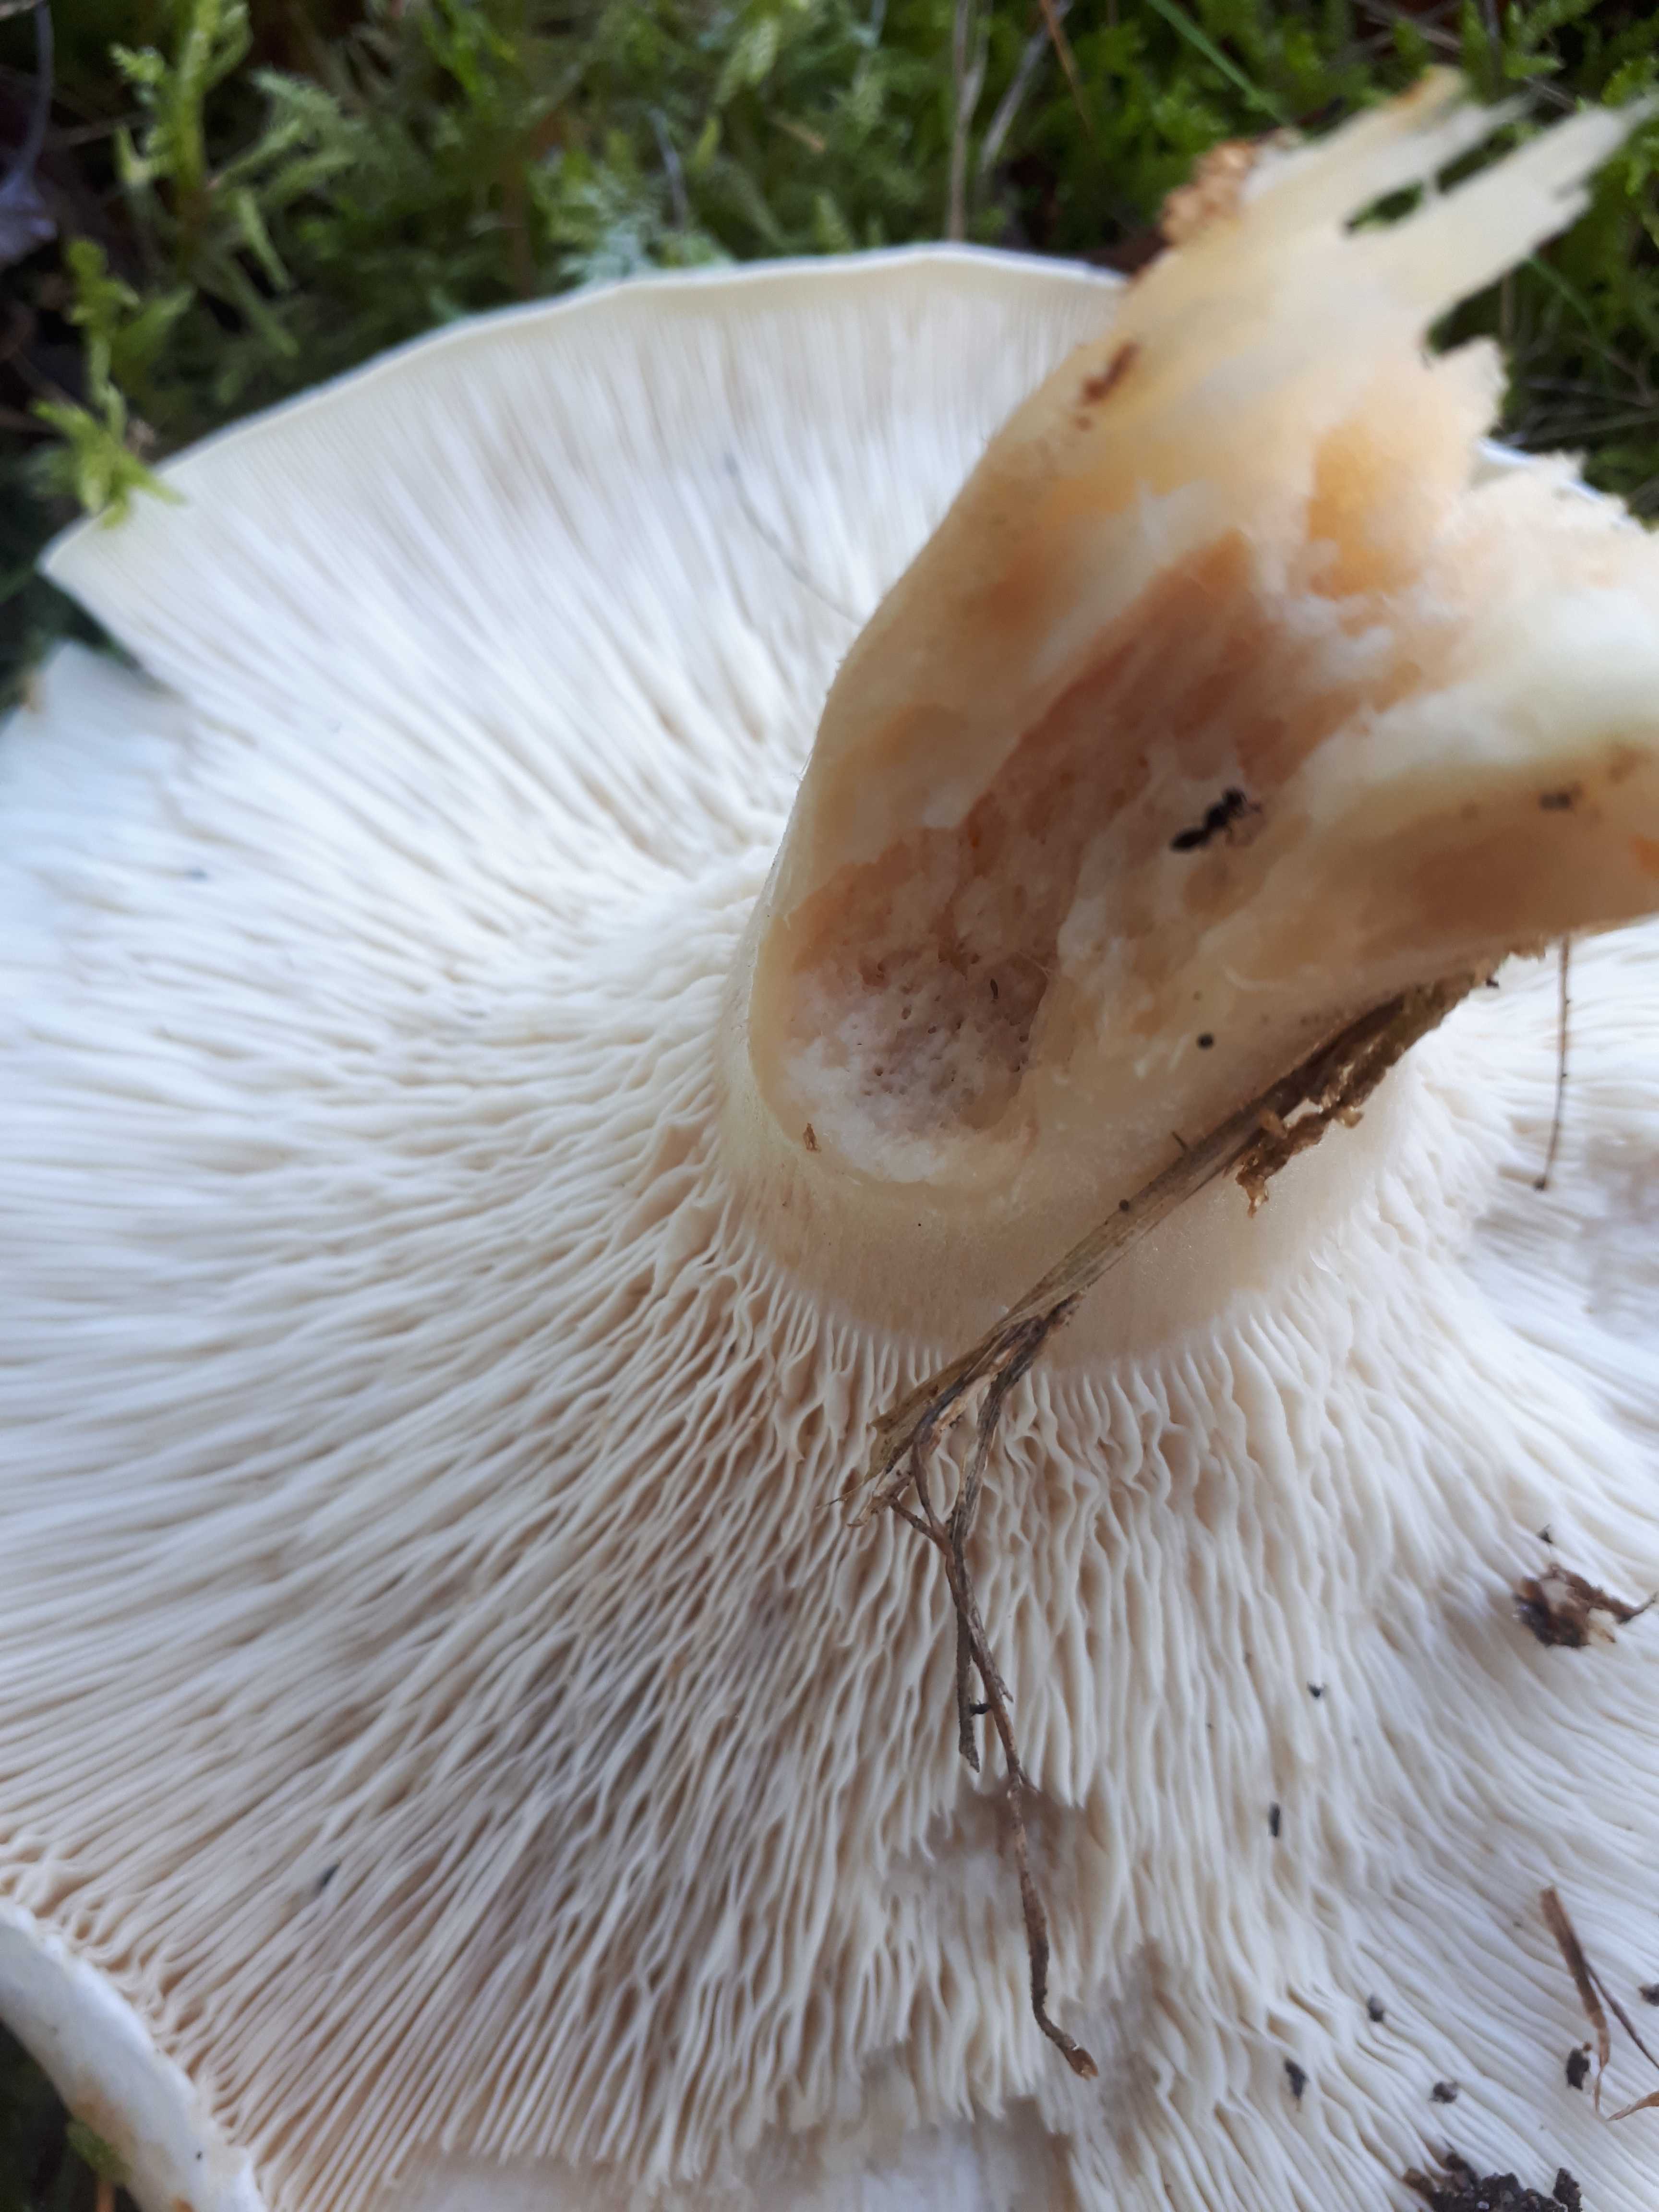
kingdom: Fungi
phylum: Basidiomycota
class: Agaricomycetes
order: Agaricales
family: Tricholomataceae
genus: Aspropaxillus
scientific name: Aspropaxillus giganteus
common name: kæmpe-tragtridderhat
